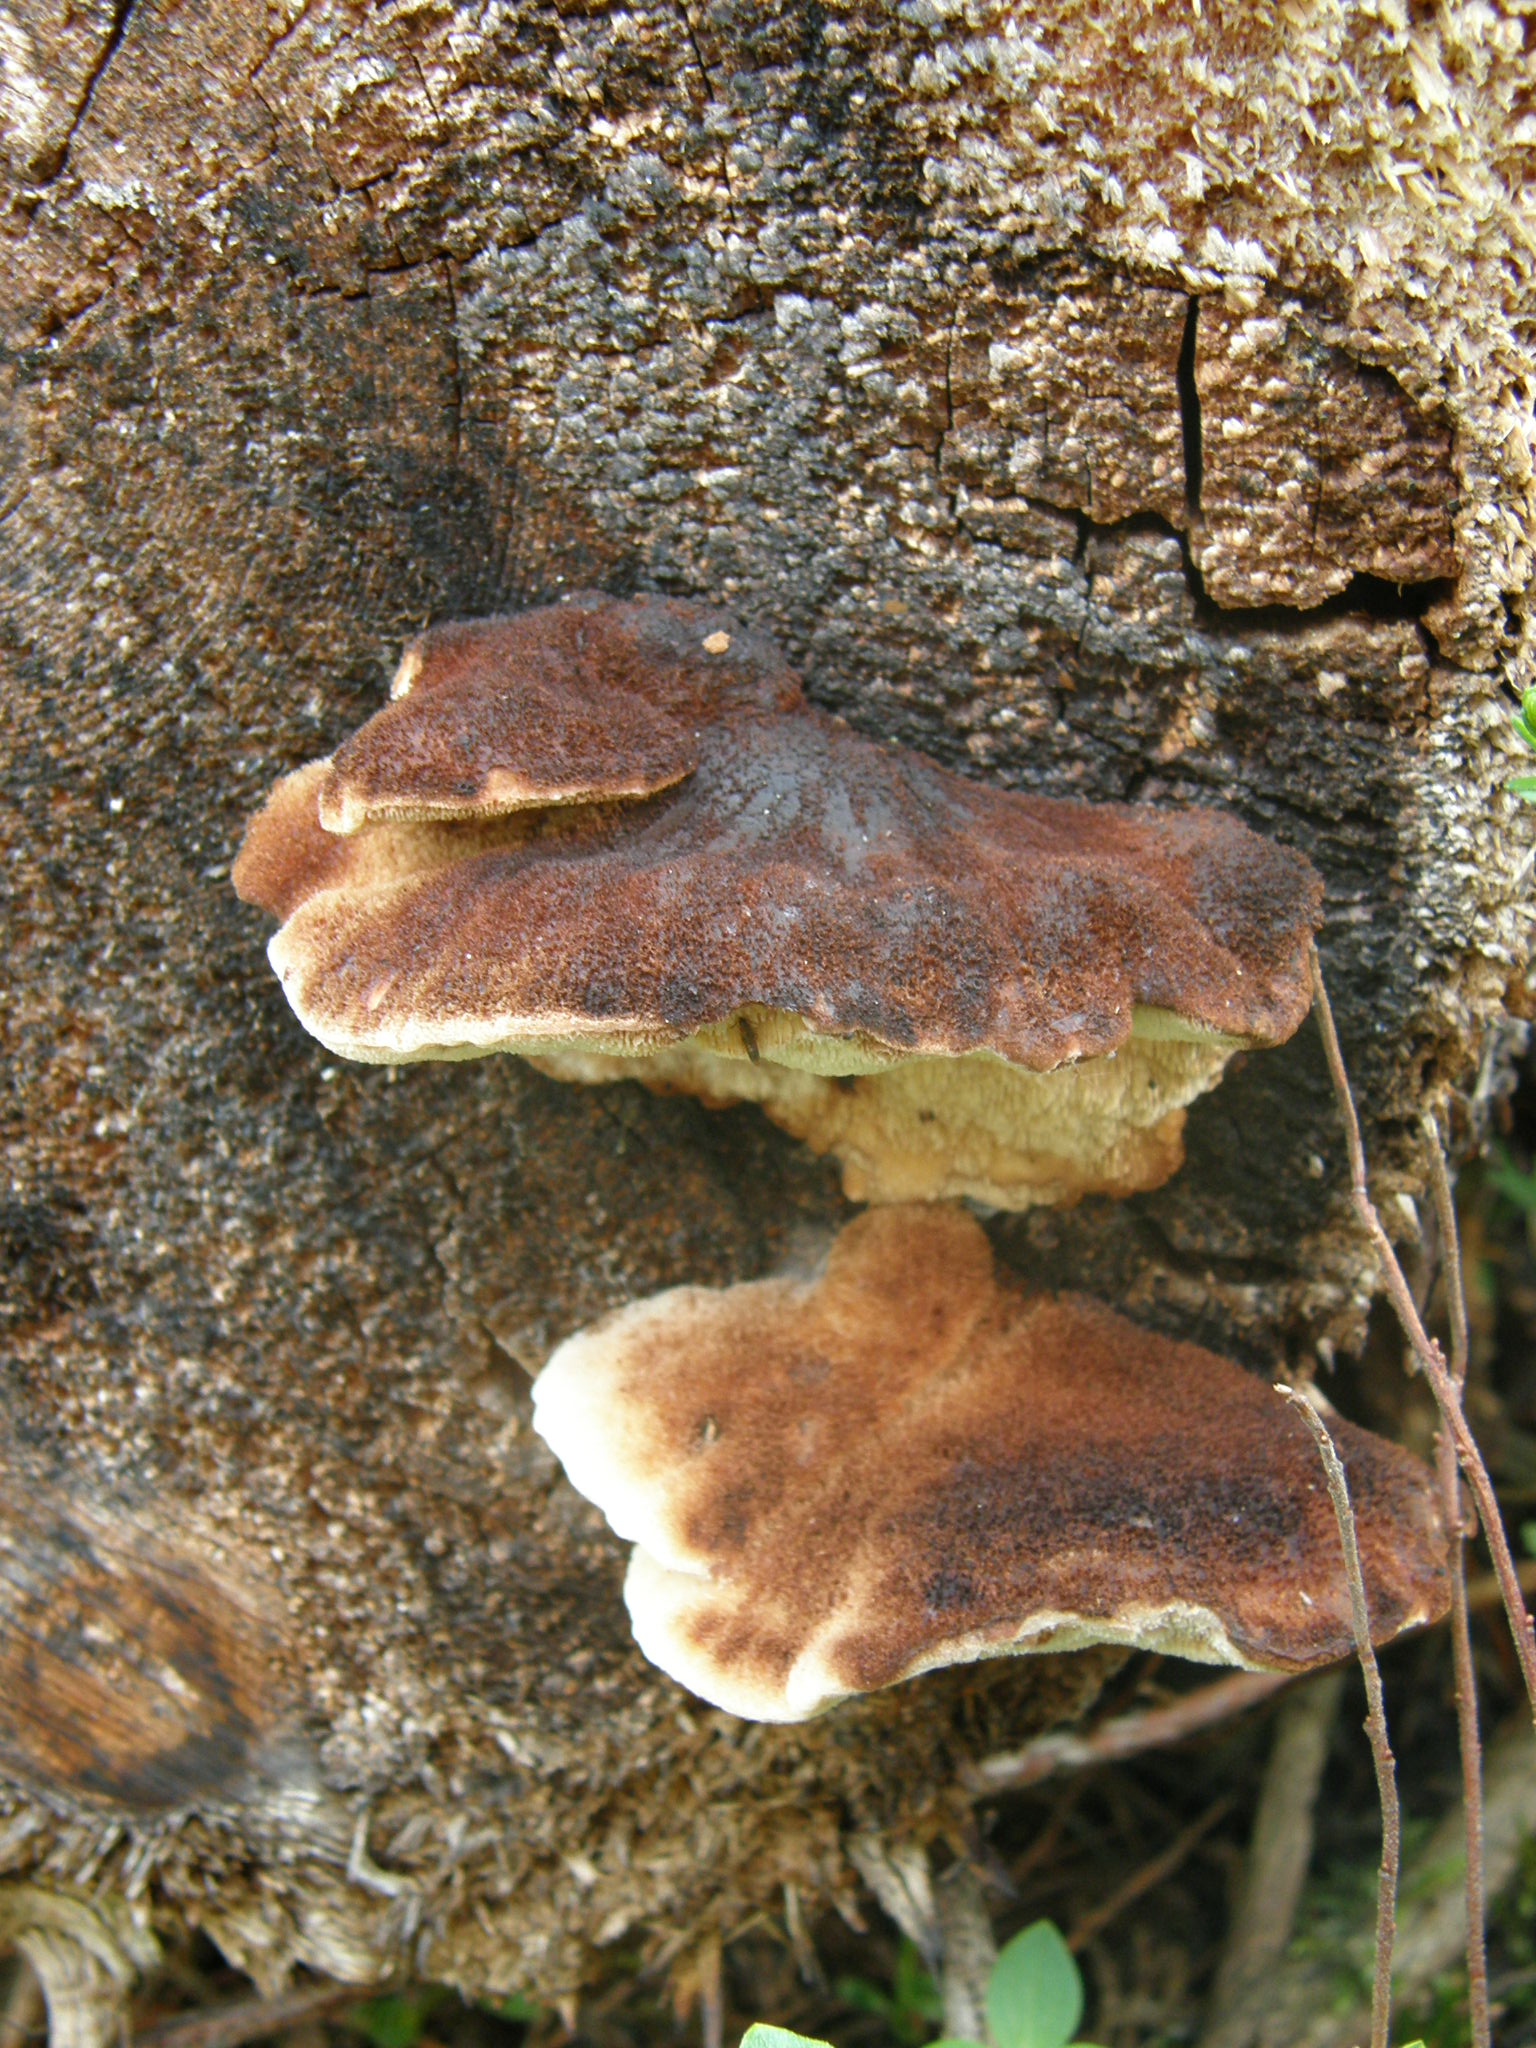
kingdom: Fungi
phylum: Basidiomycota
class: Agaricomycetes
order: Polyporales
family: Dacryobolaceae
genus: Amylocystis
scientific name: Amylocystis lapponica
